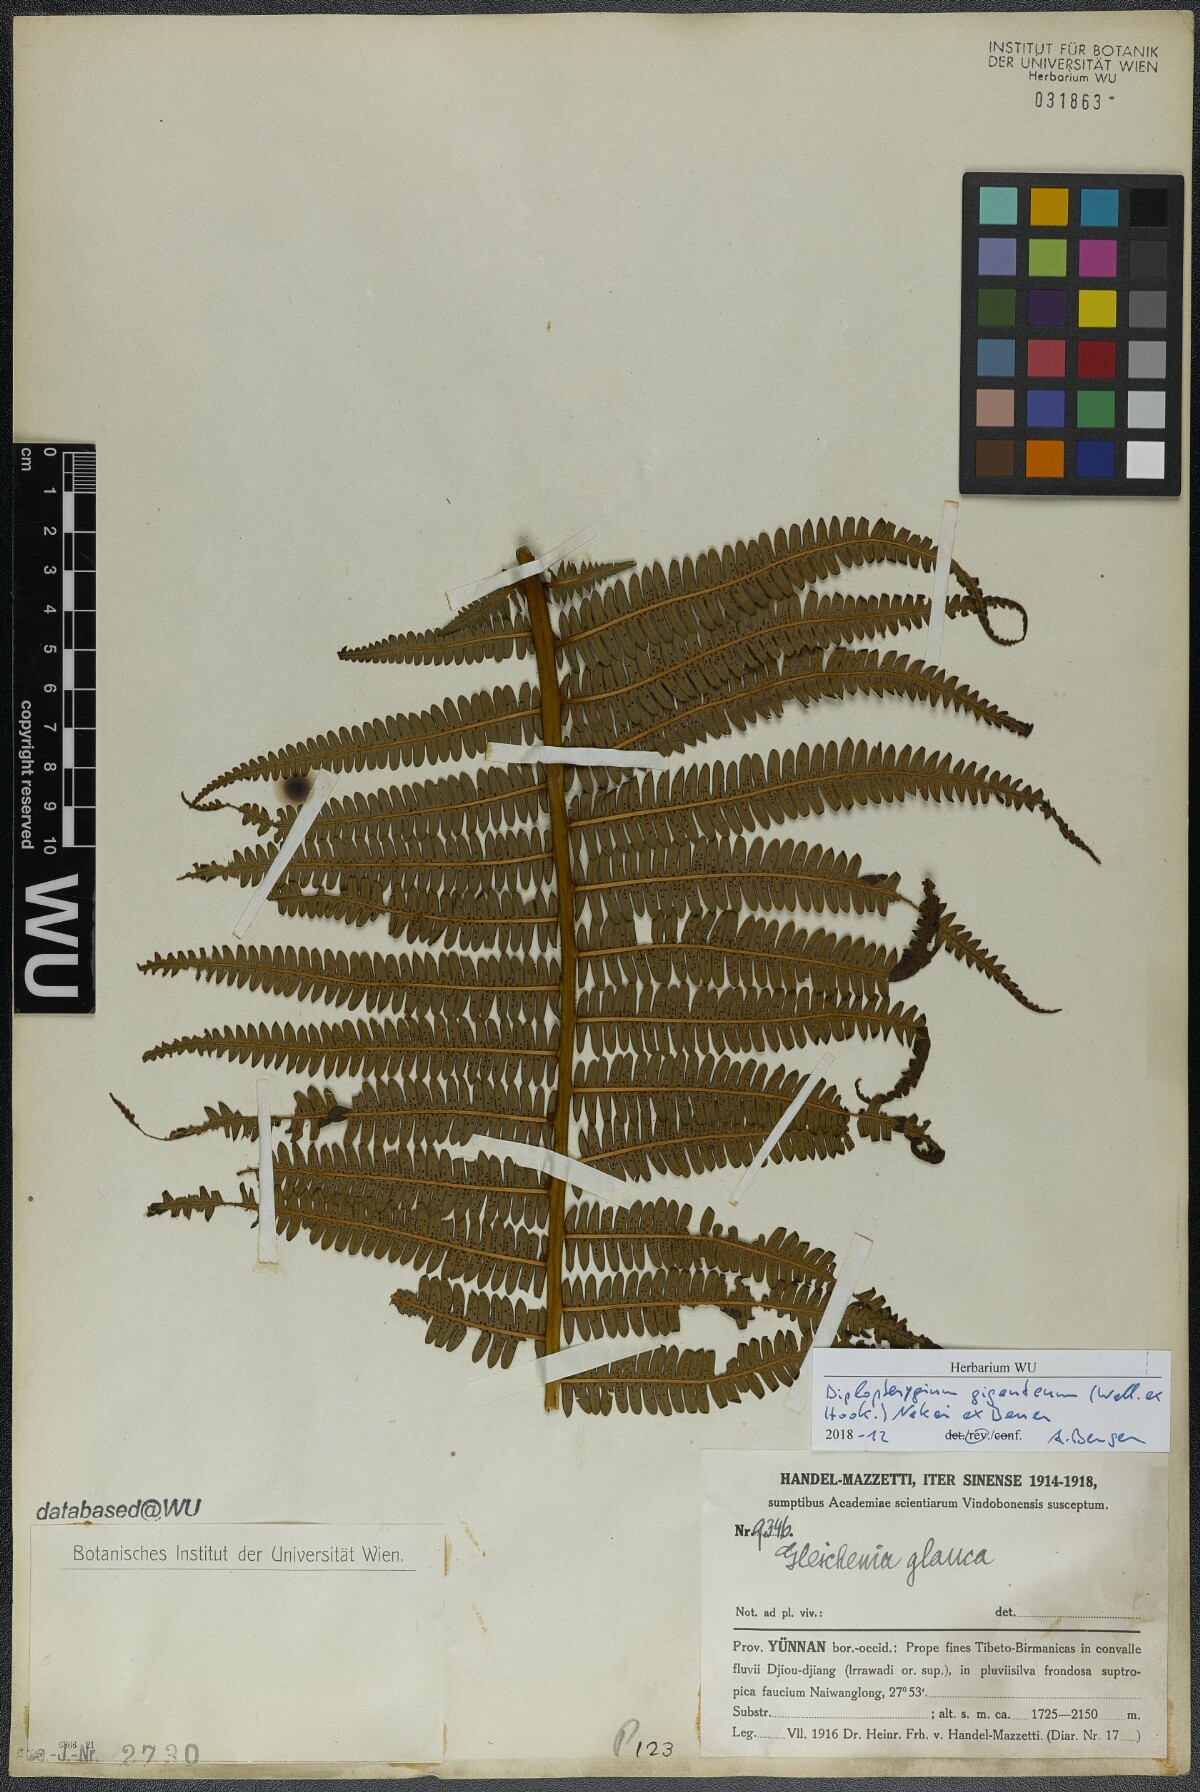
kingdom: Plantae
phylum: Tracheophyta
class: Polypodiopsida
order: Gleicheniales
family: Gleicheniaceae
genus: Diplopterygium
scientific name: Diplopterygium giganteum
